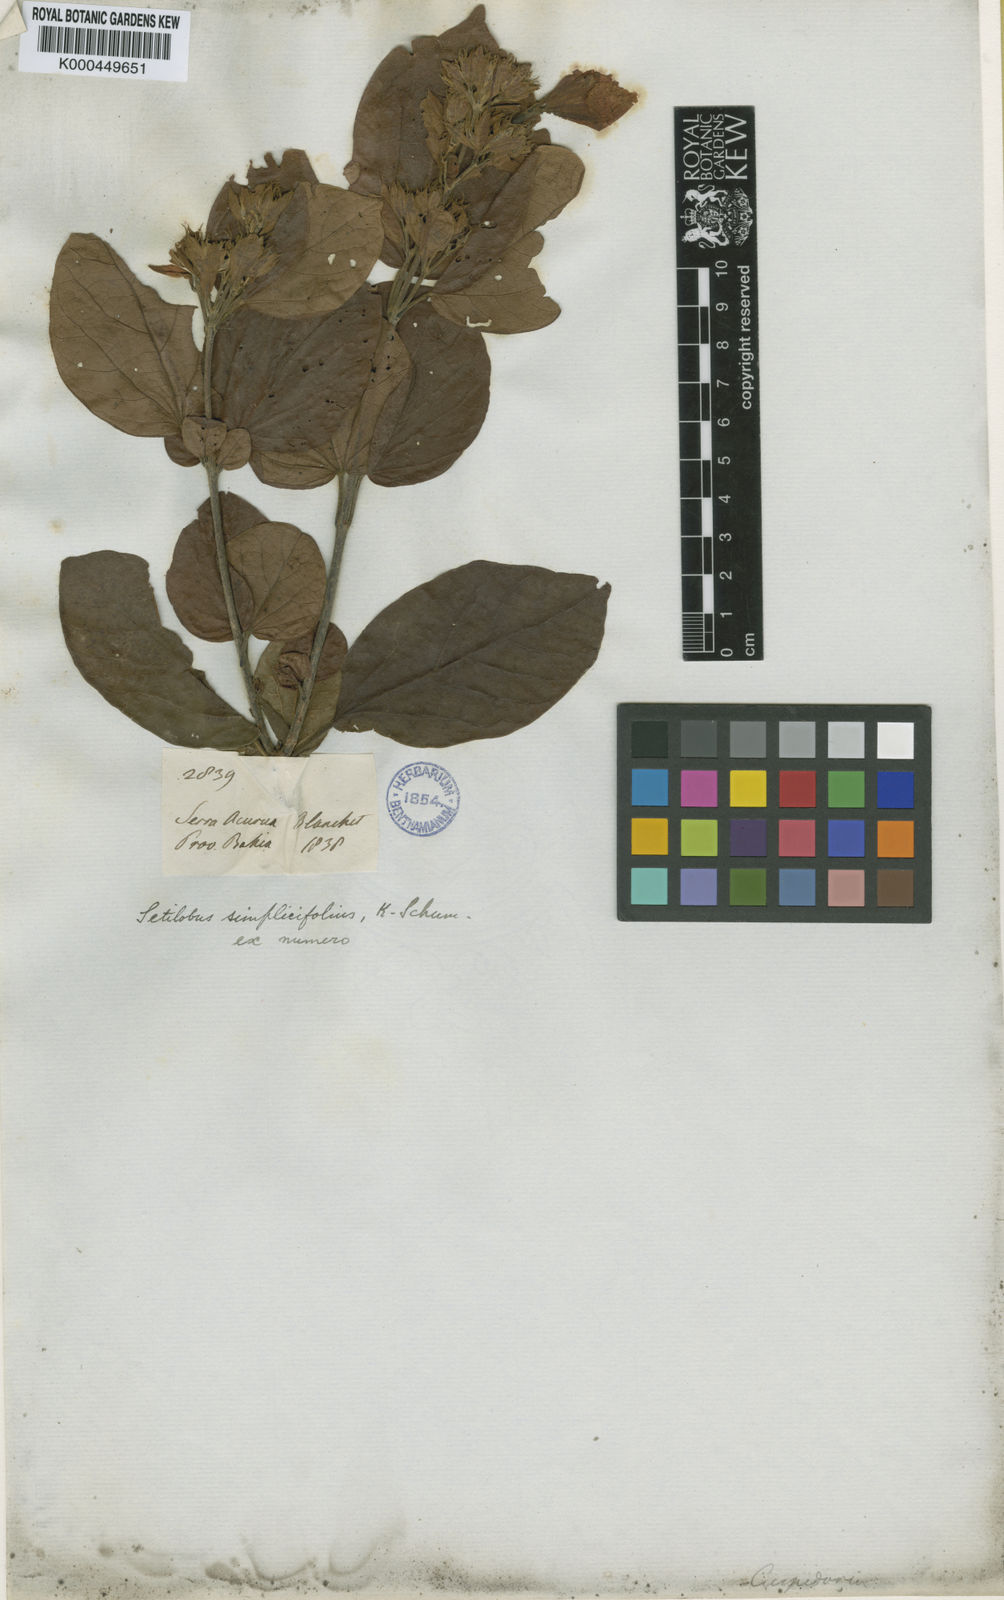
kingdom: Plantae
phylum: Tracheophyta
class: Magnoliopsida
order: Lamiales
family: Bignoniaceae
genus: Cuspidaria
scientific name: Cuspidaria simplicifolia
